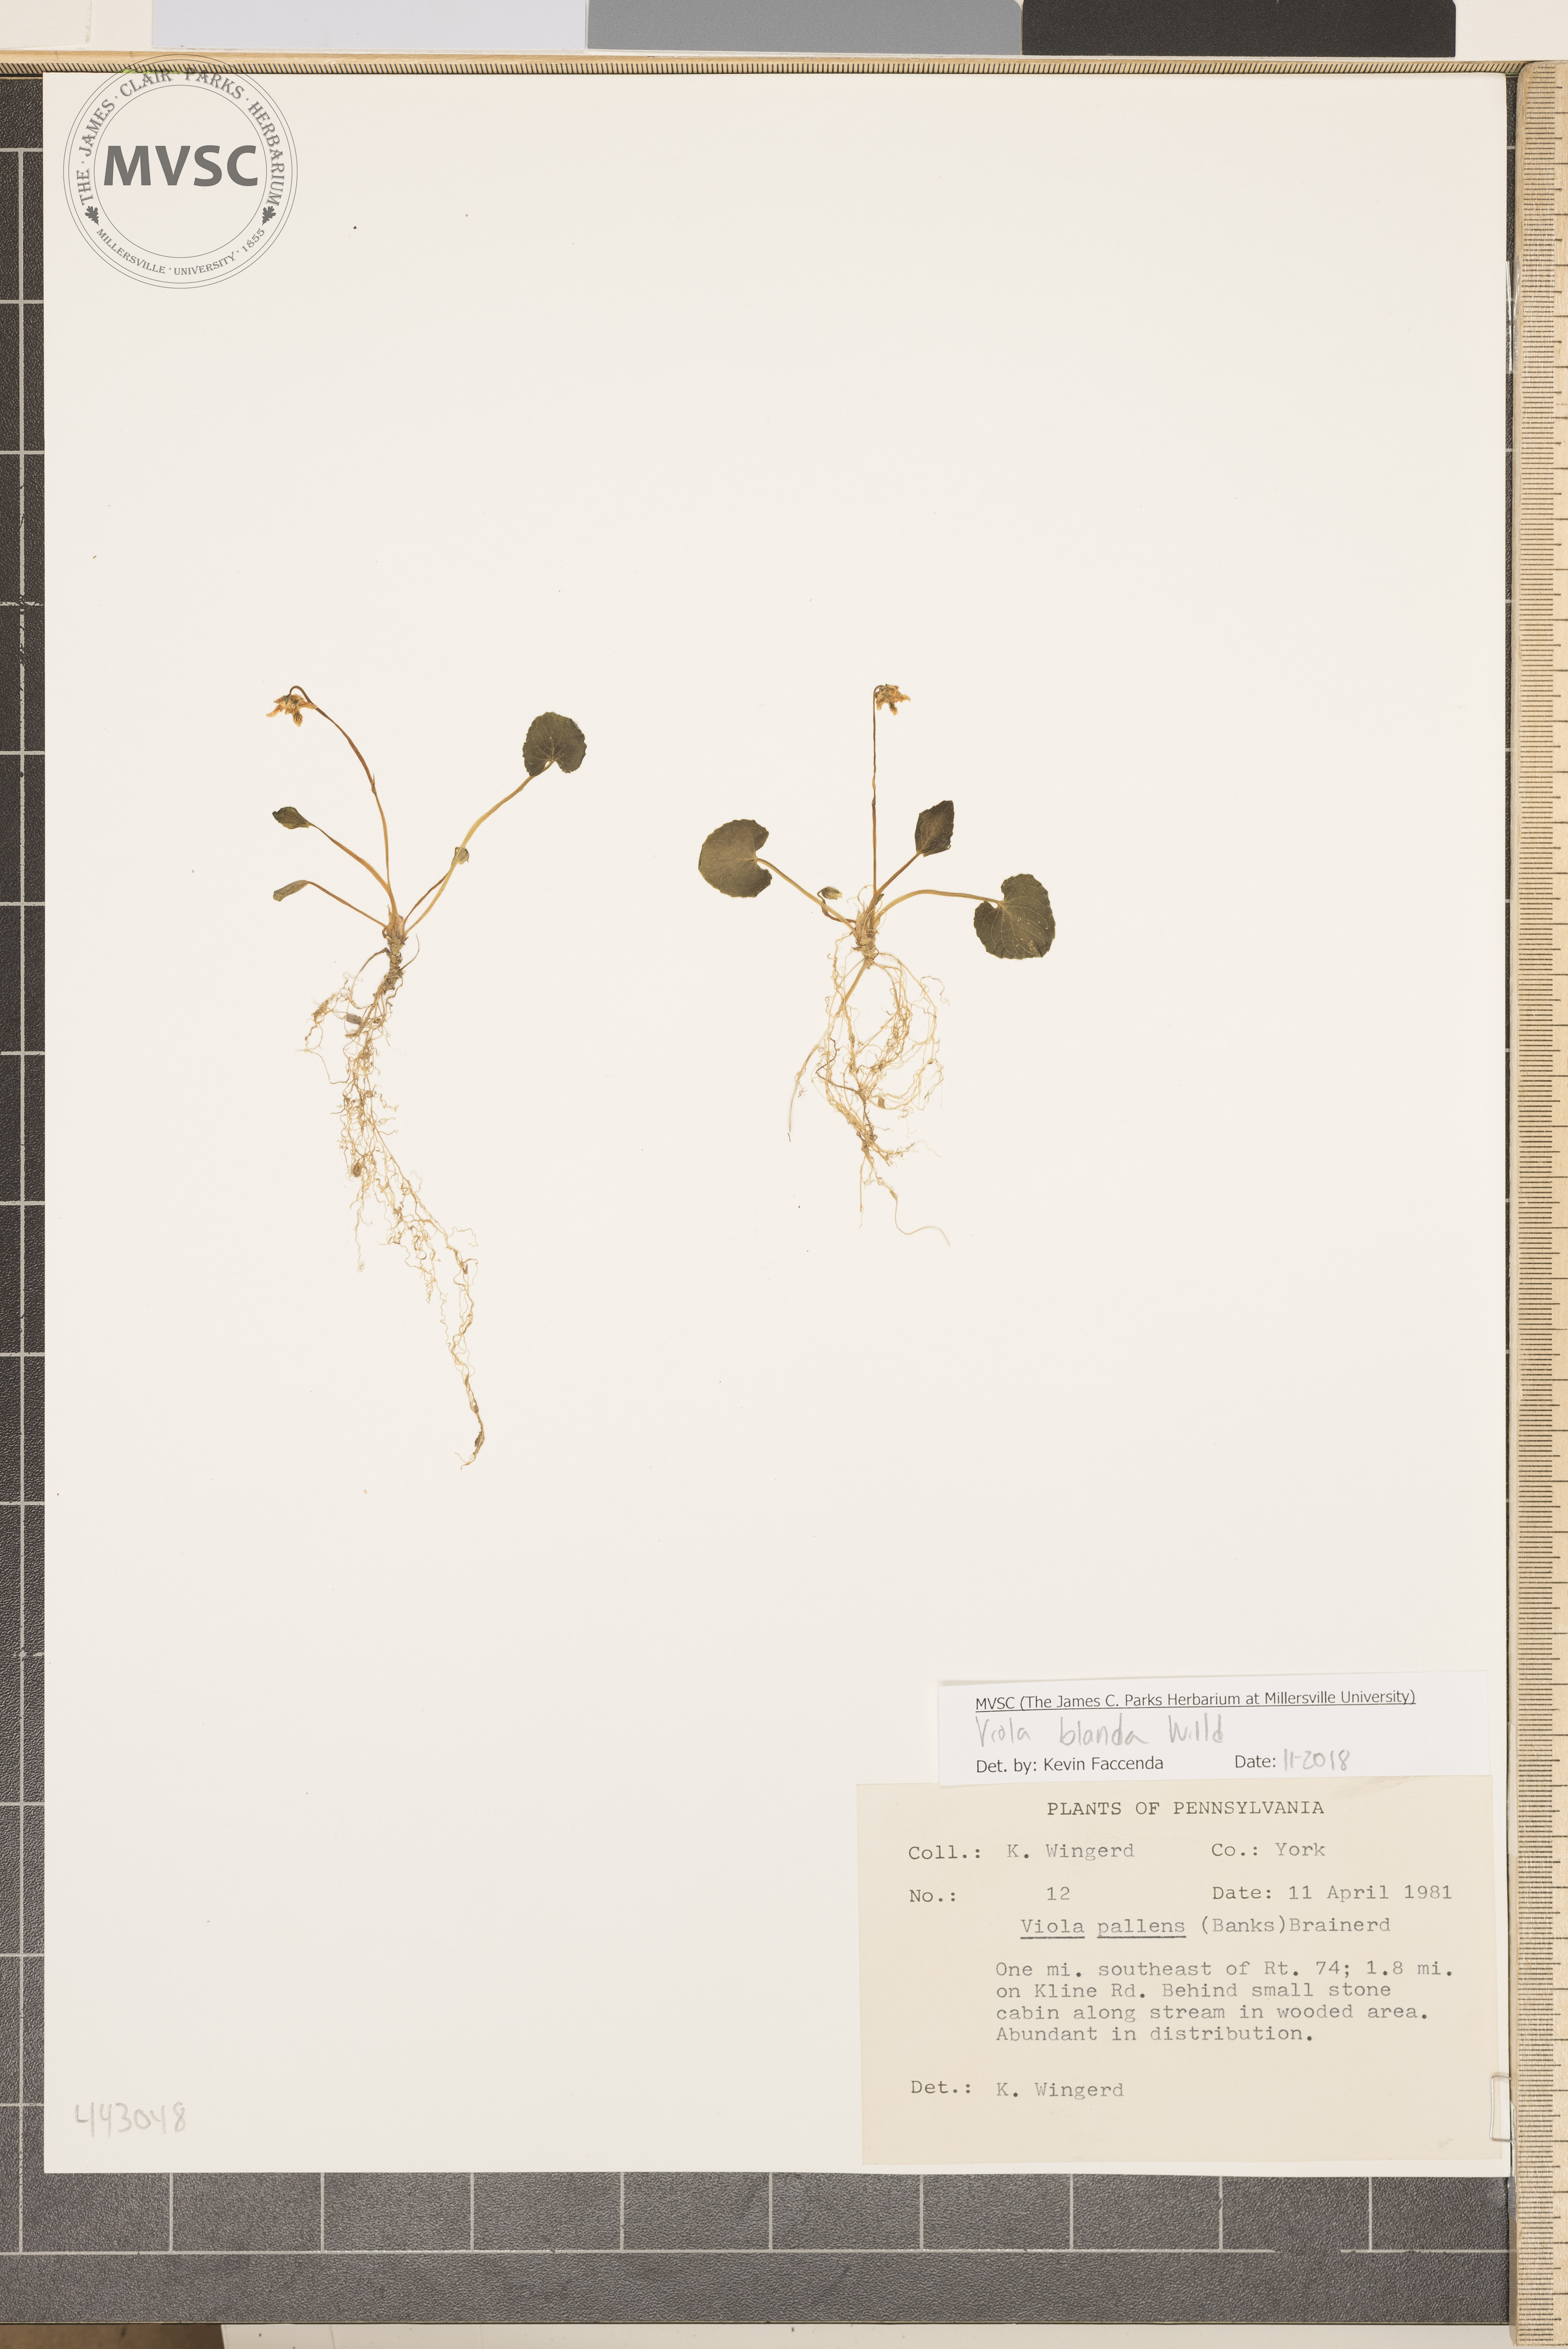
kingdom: Plantae
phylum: Tracheophyta
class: Magnoliopsida
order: Malpighiales
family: Violaceae
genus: Viola
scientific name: Viola
